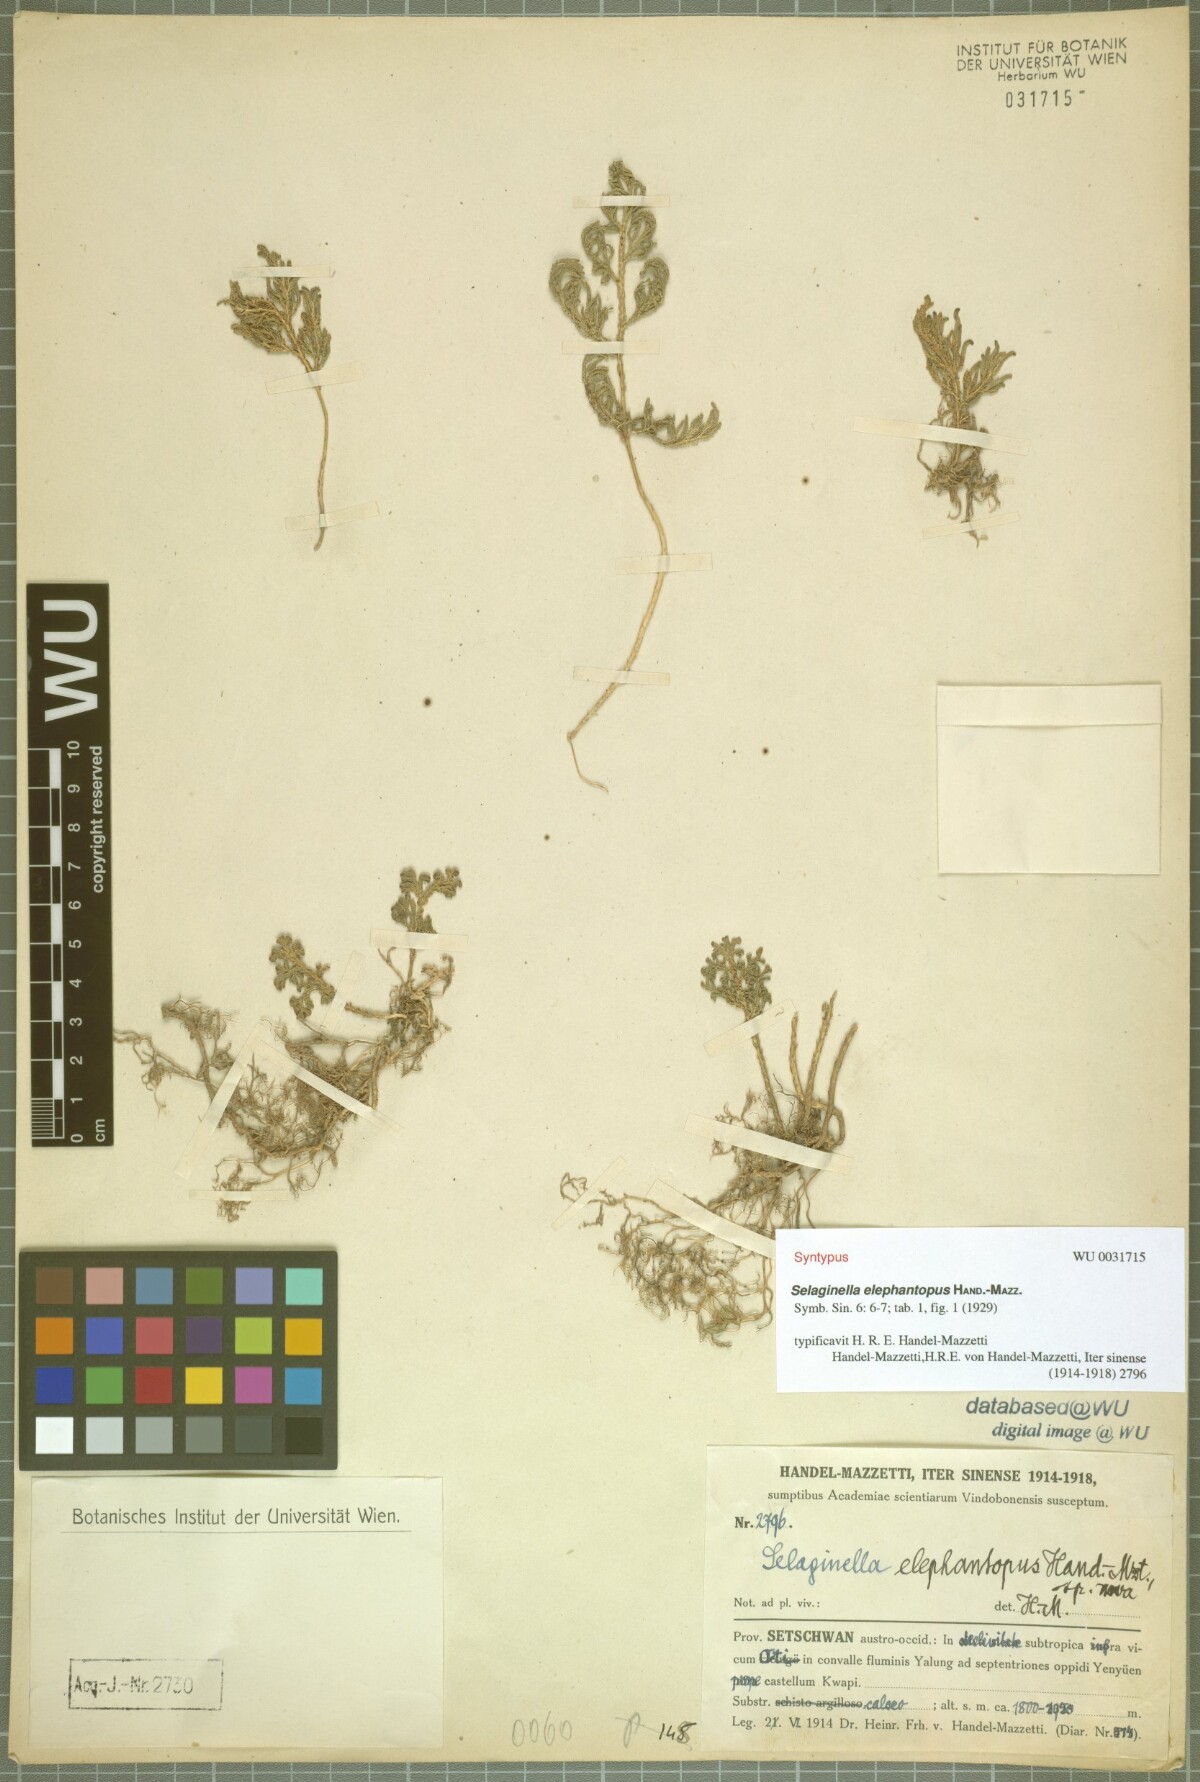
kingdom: Plantae
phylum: Tracheophyta
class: Lycopodiopsida
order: Selaginellales
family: Selaginellaceae
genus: Selaginella
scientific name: Selaginella mairei
